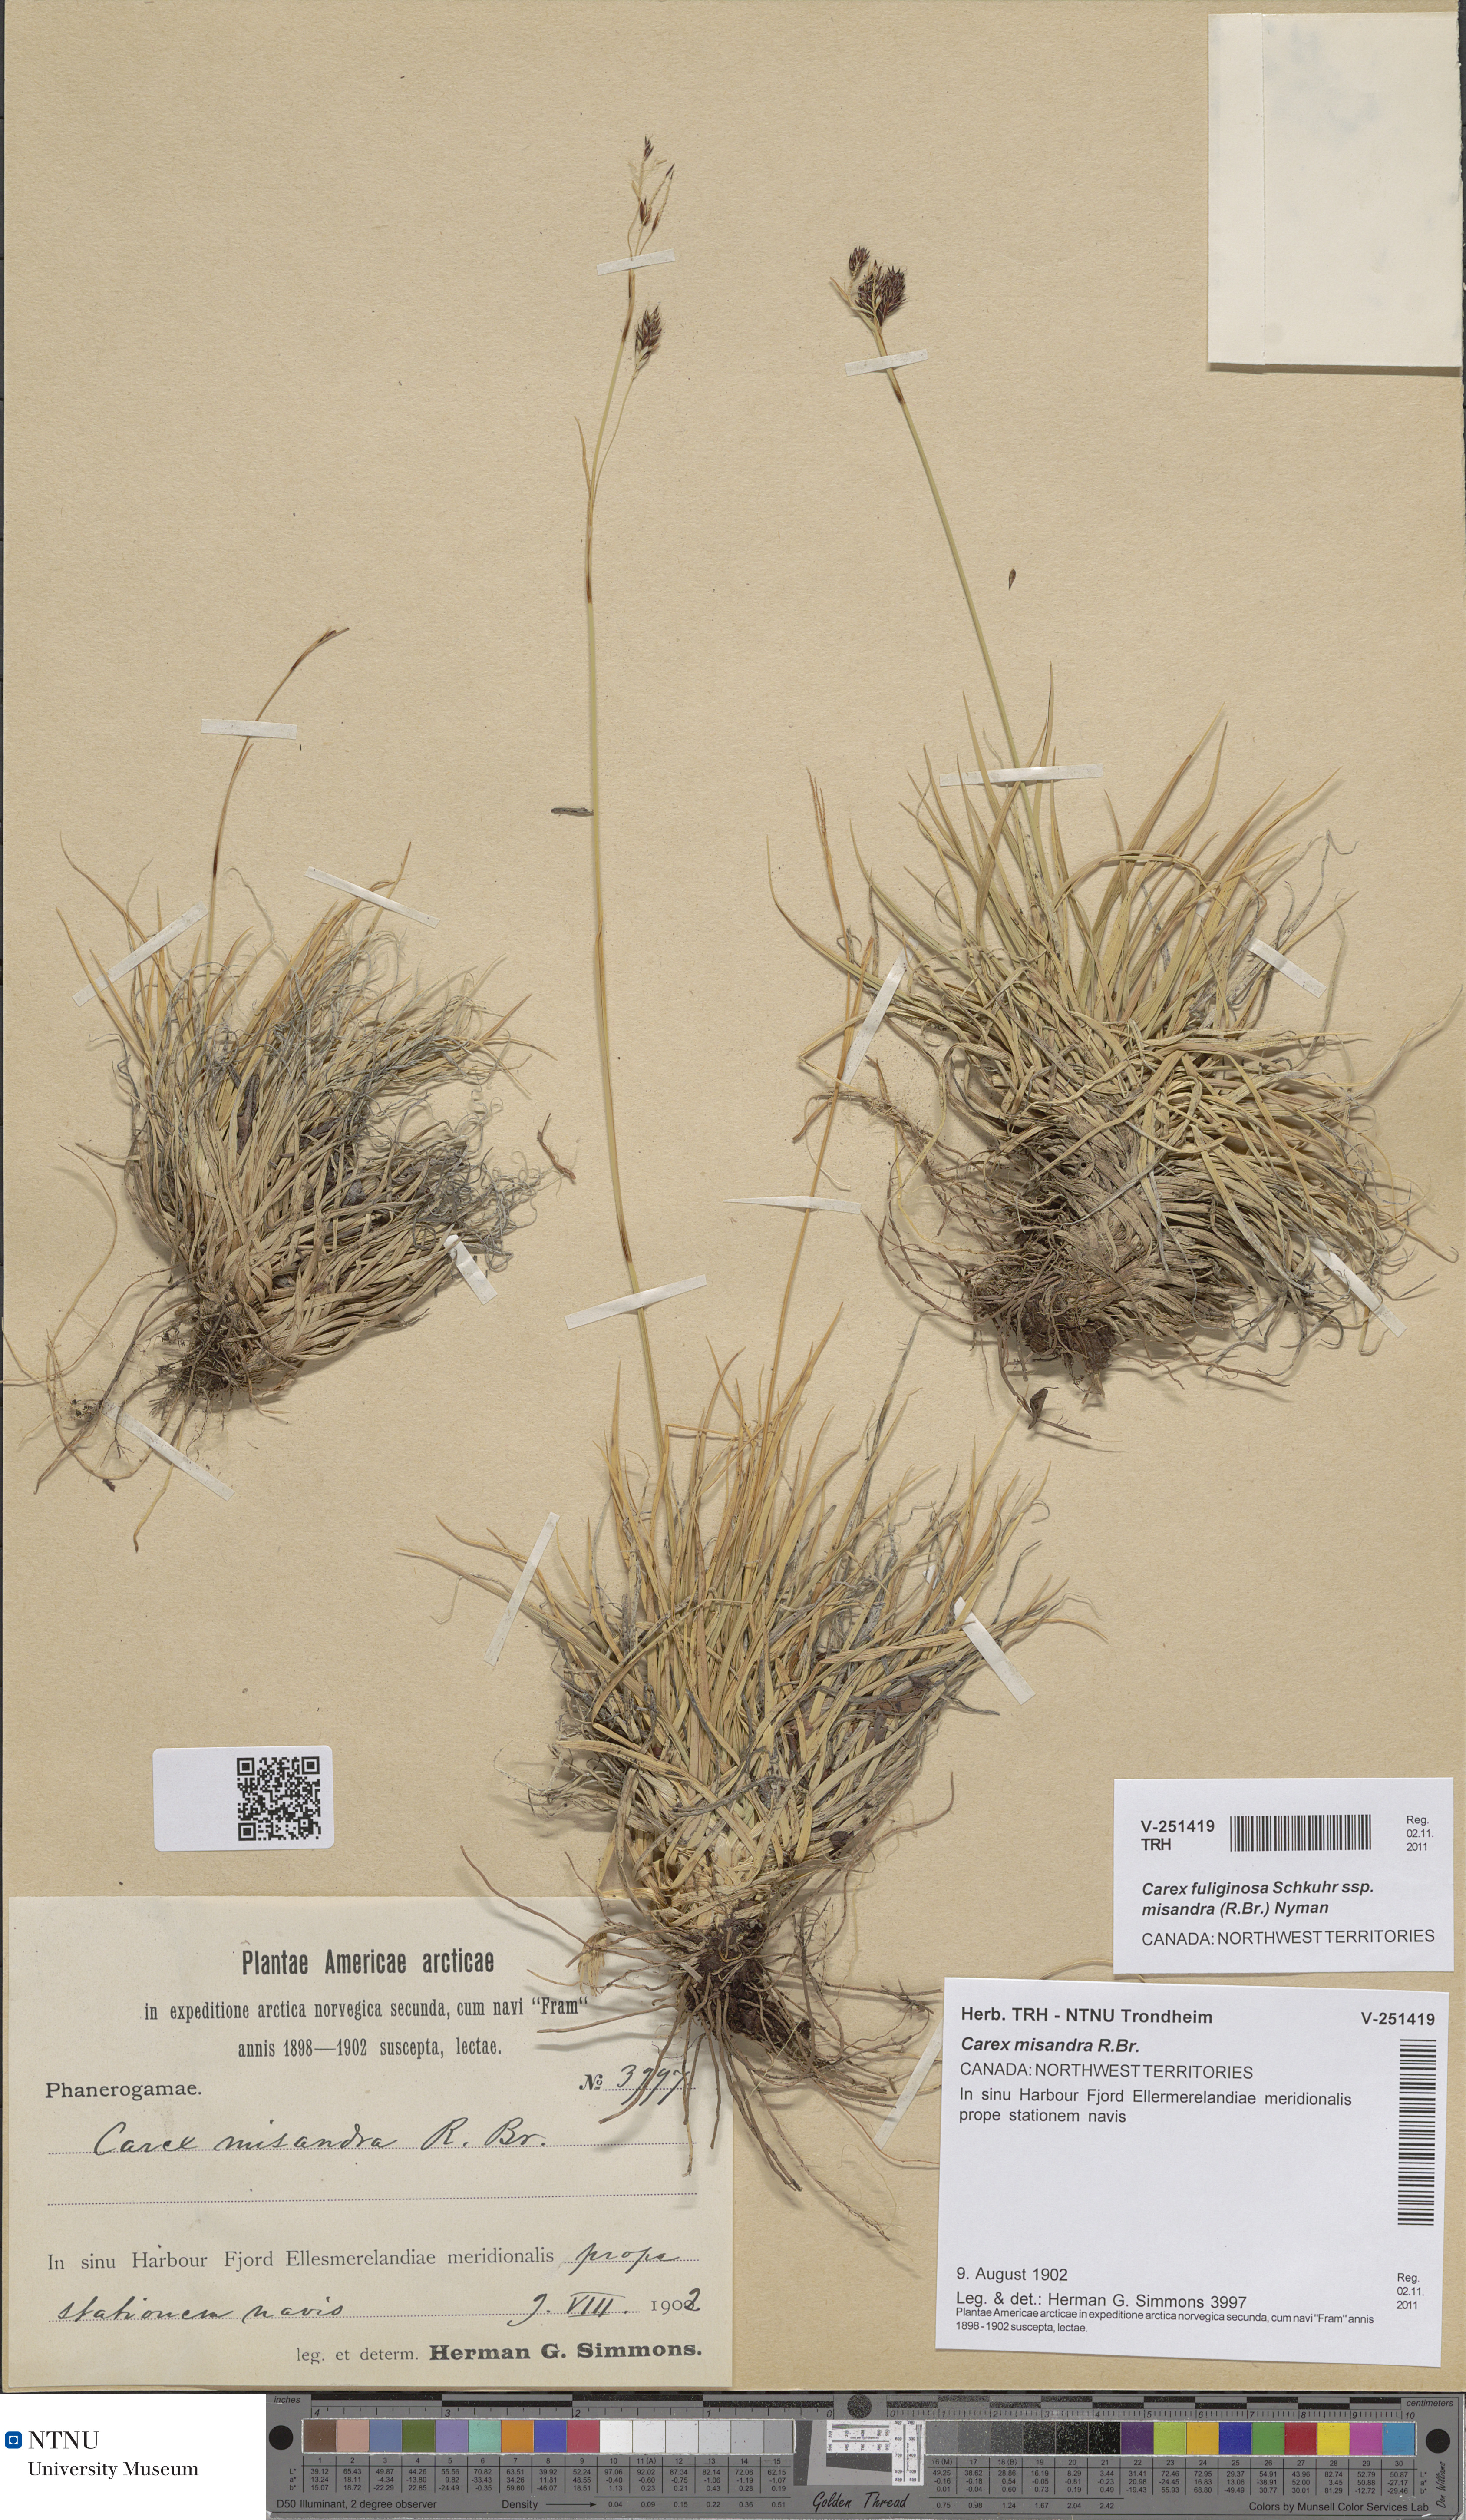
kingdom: Plantae
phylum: Tracheophyta
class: Liliopsida
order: Poales
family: Cyperaceae
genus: Carex
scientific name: Carex fuliginosa
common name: Few-flowered sedge
